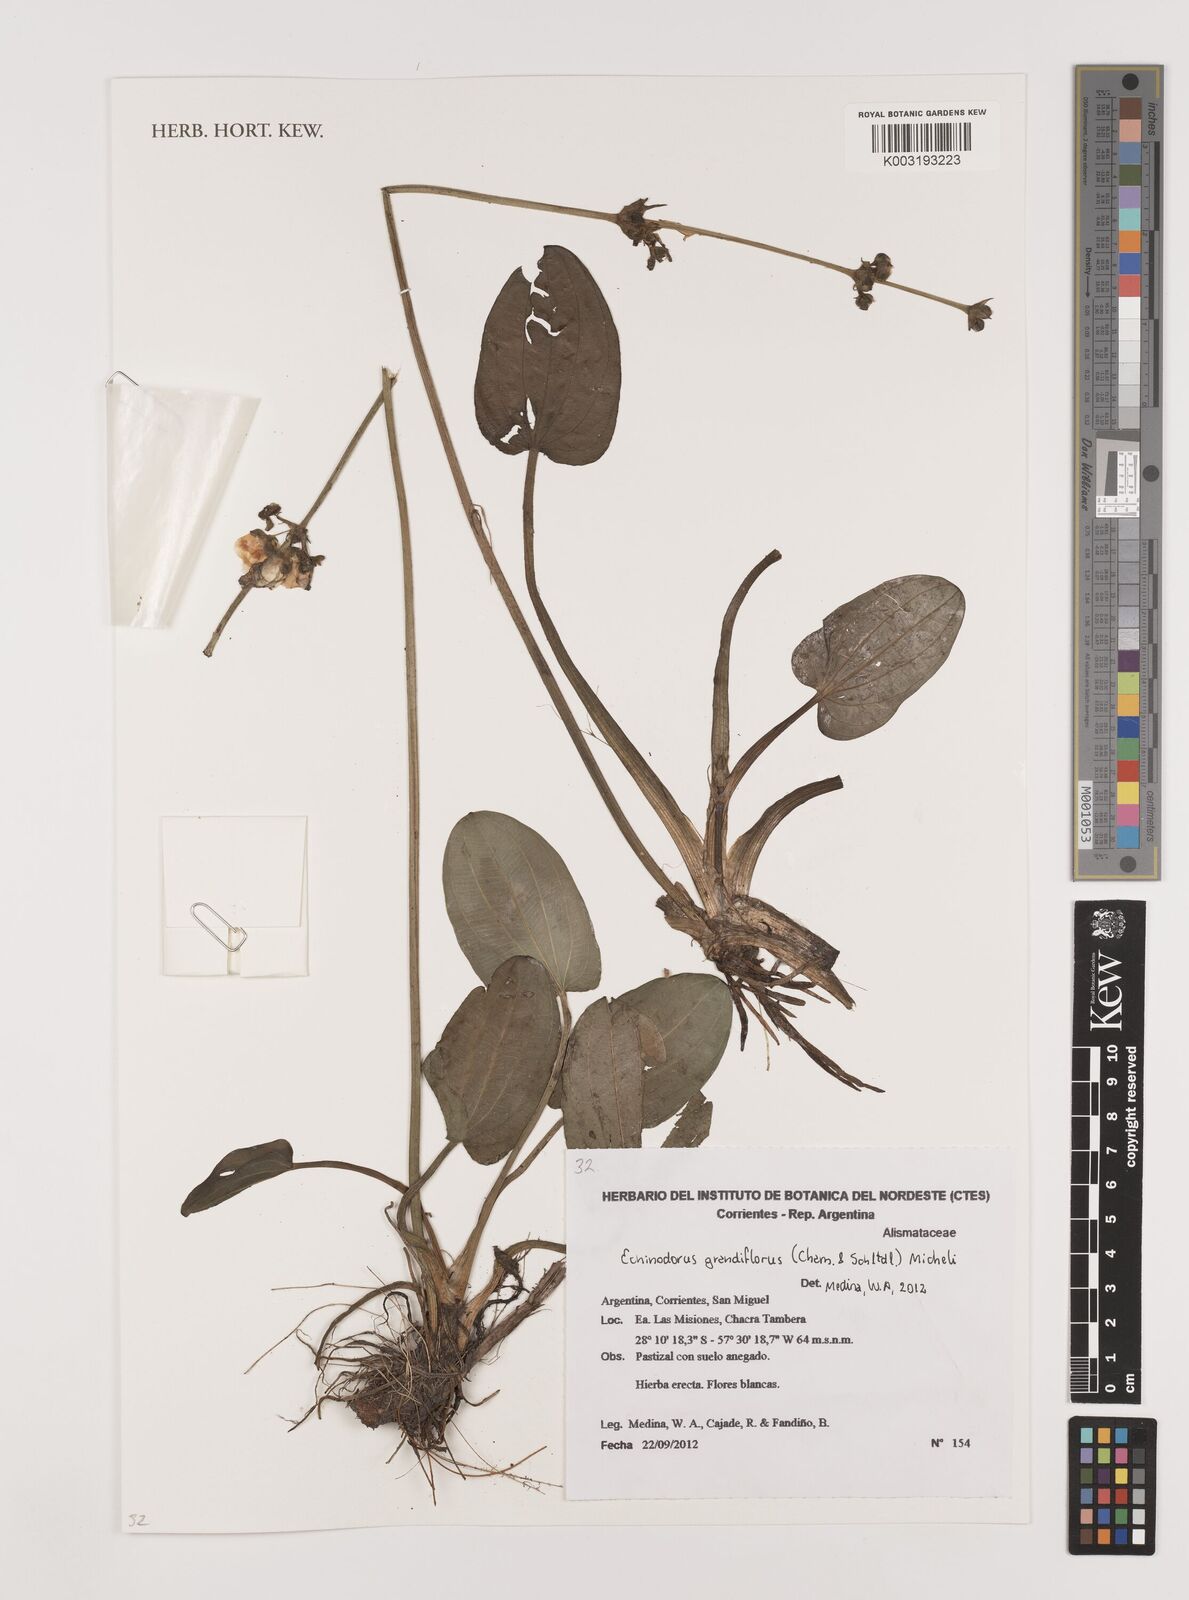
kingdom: Plantae
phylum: Tracheophyta
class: Liliopsida
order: Alismatales
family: Alismataceae
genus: Aquarius
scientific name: Aquarius grandiflorus
